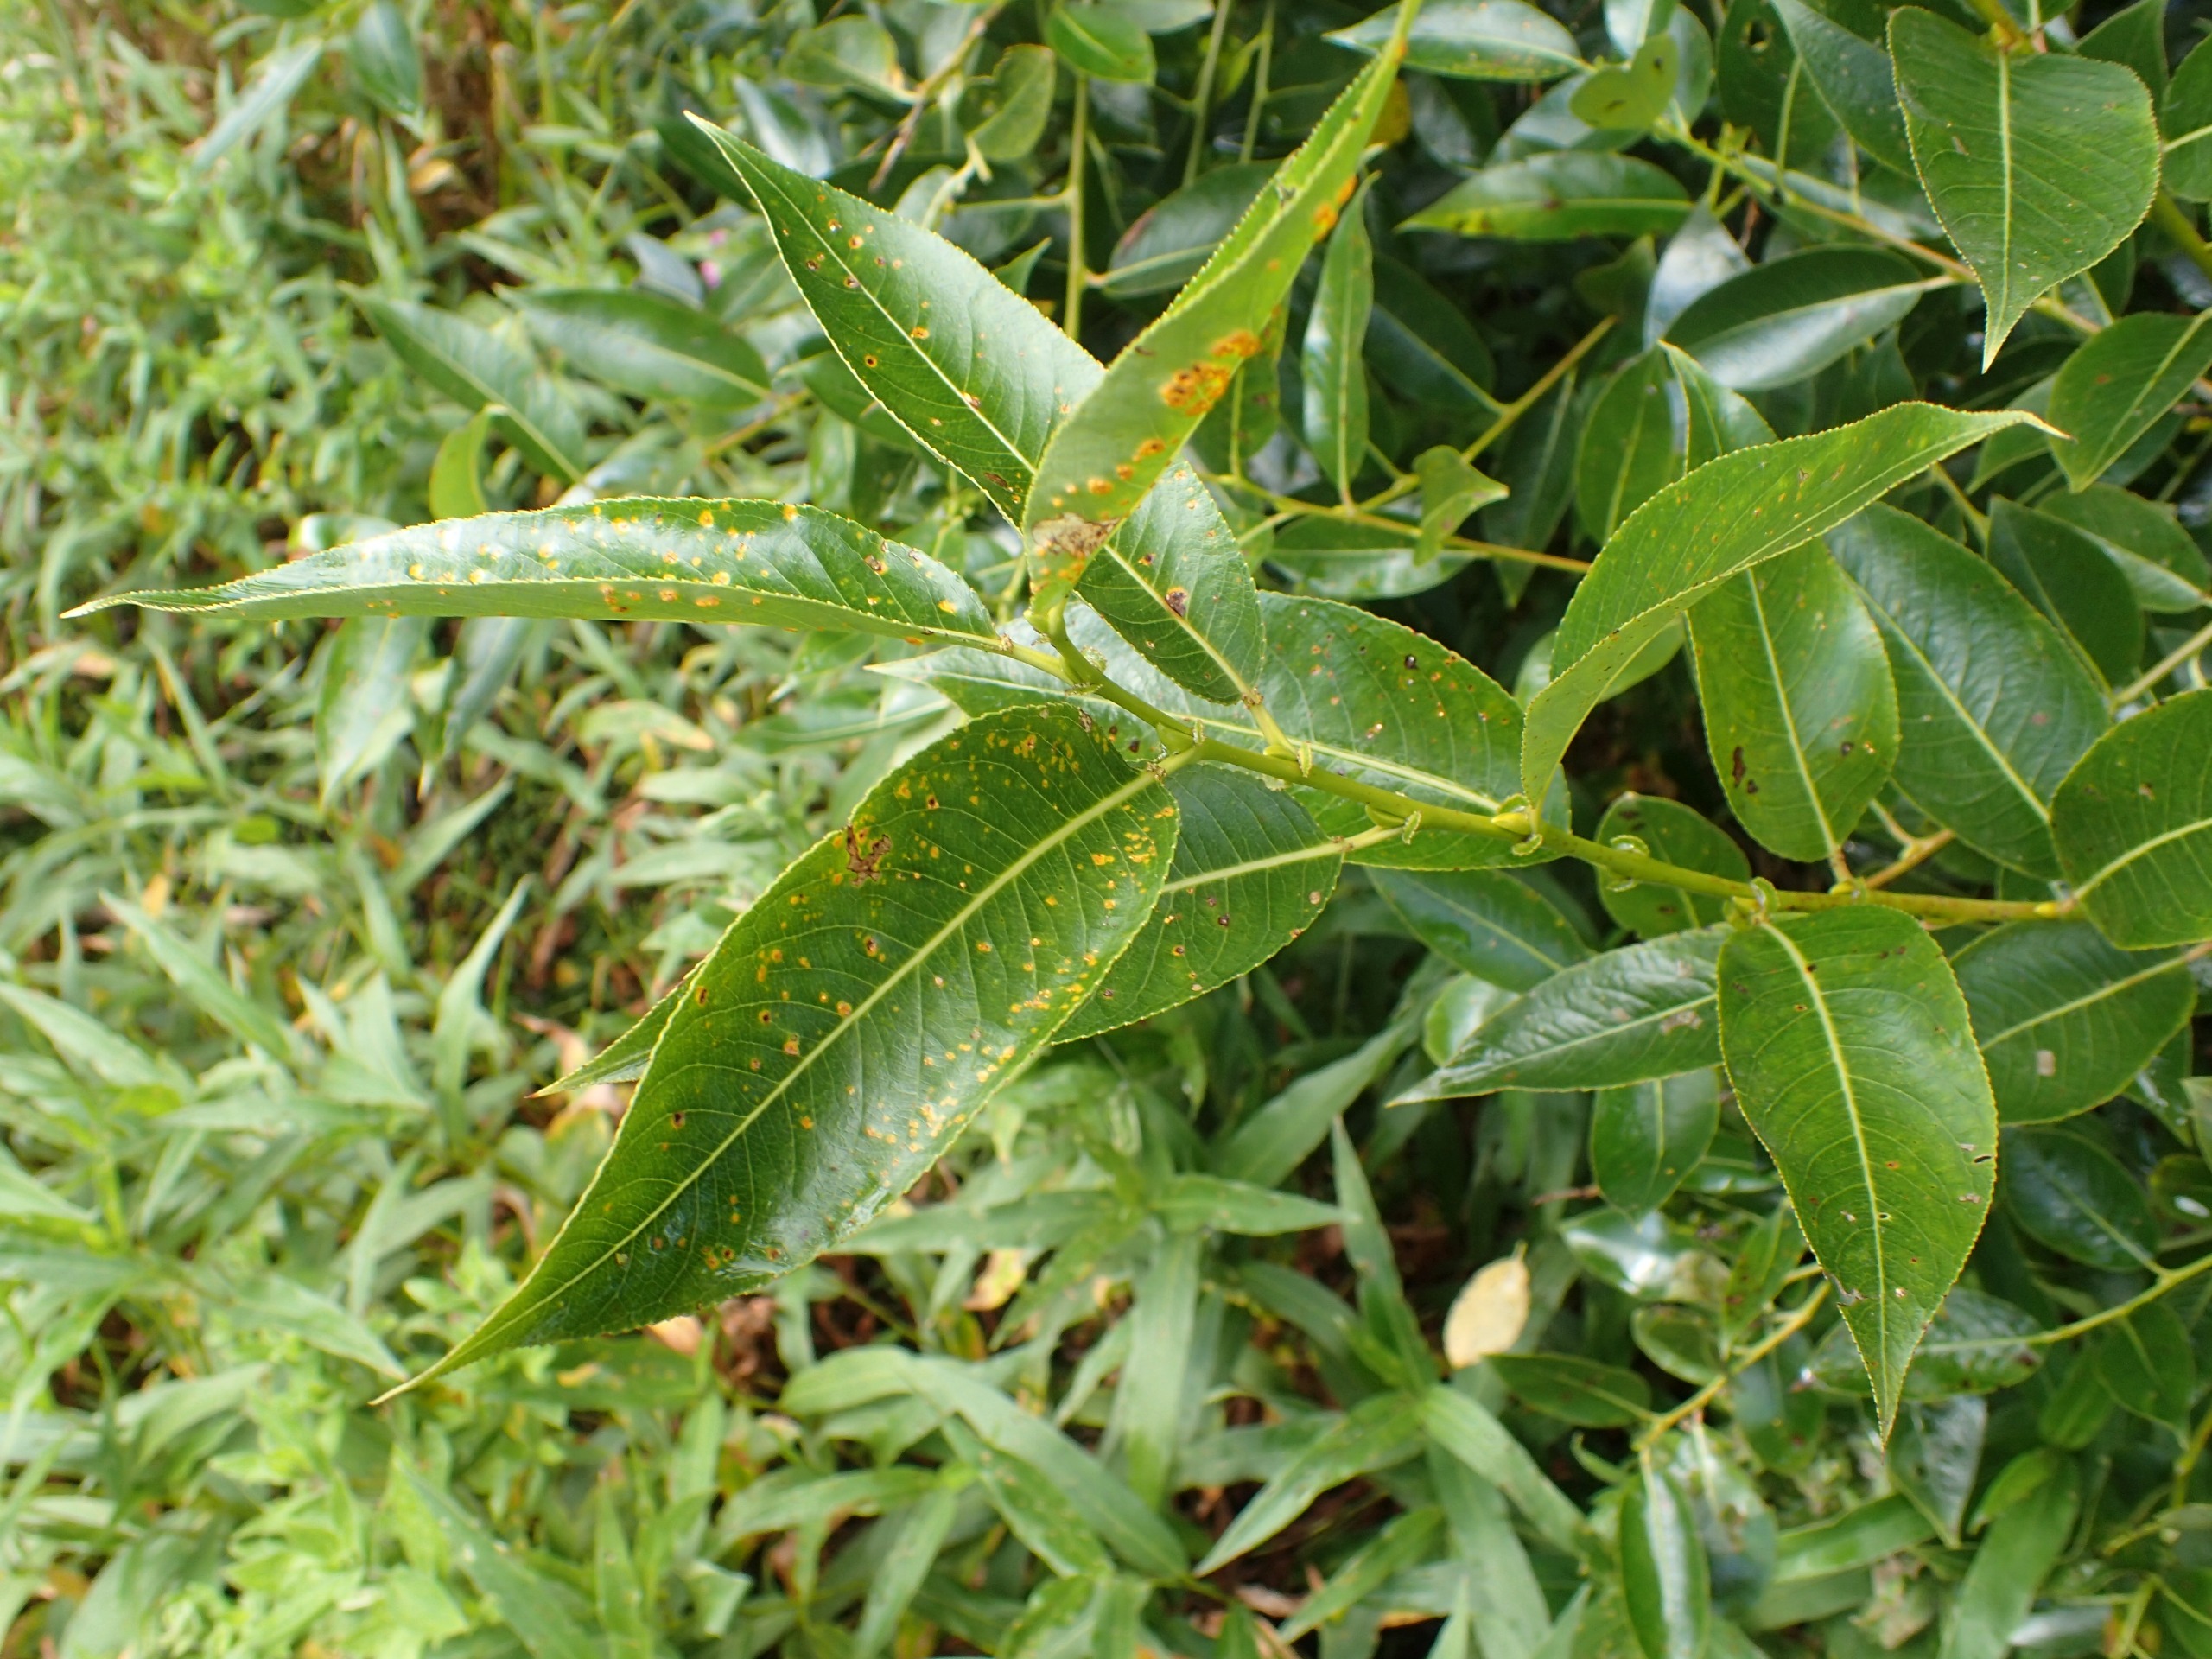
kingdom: Plantae
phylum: Tracheophyta
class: Magnoliopsida
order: Malpighiales
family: Salicaceae
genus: Salix
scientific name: Salix pentandra
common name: Femhannet pil
